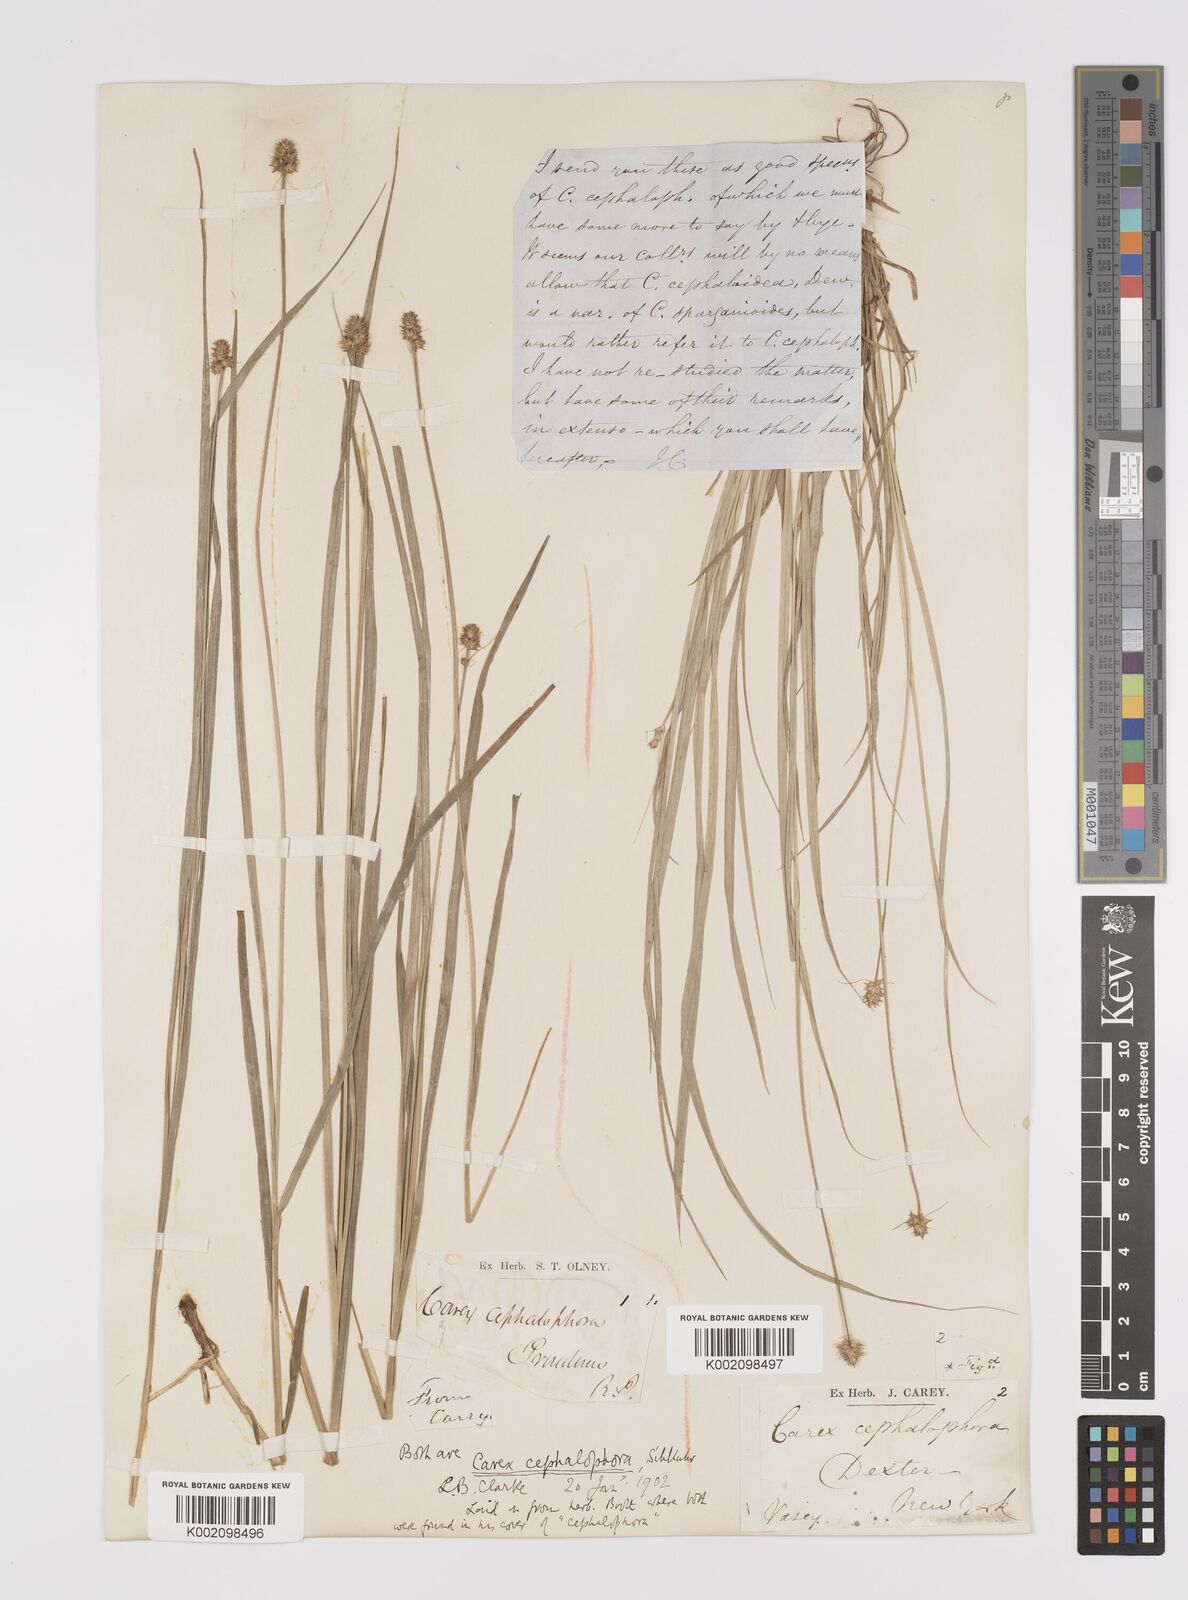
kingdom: Plantae
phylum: Tracheophyta
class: Liliopsida
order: Poales
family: Cyperaceae
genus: Carex
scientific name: Carex cephalophora
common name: Oval-headed sedge
